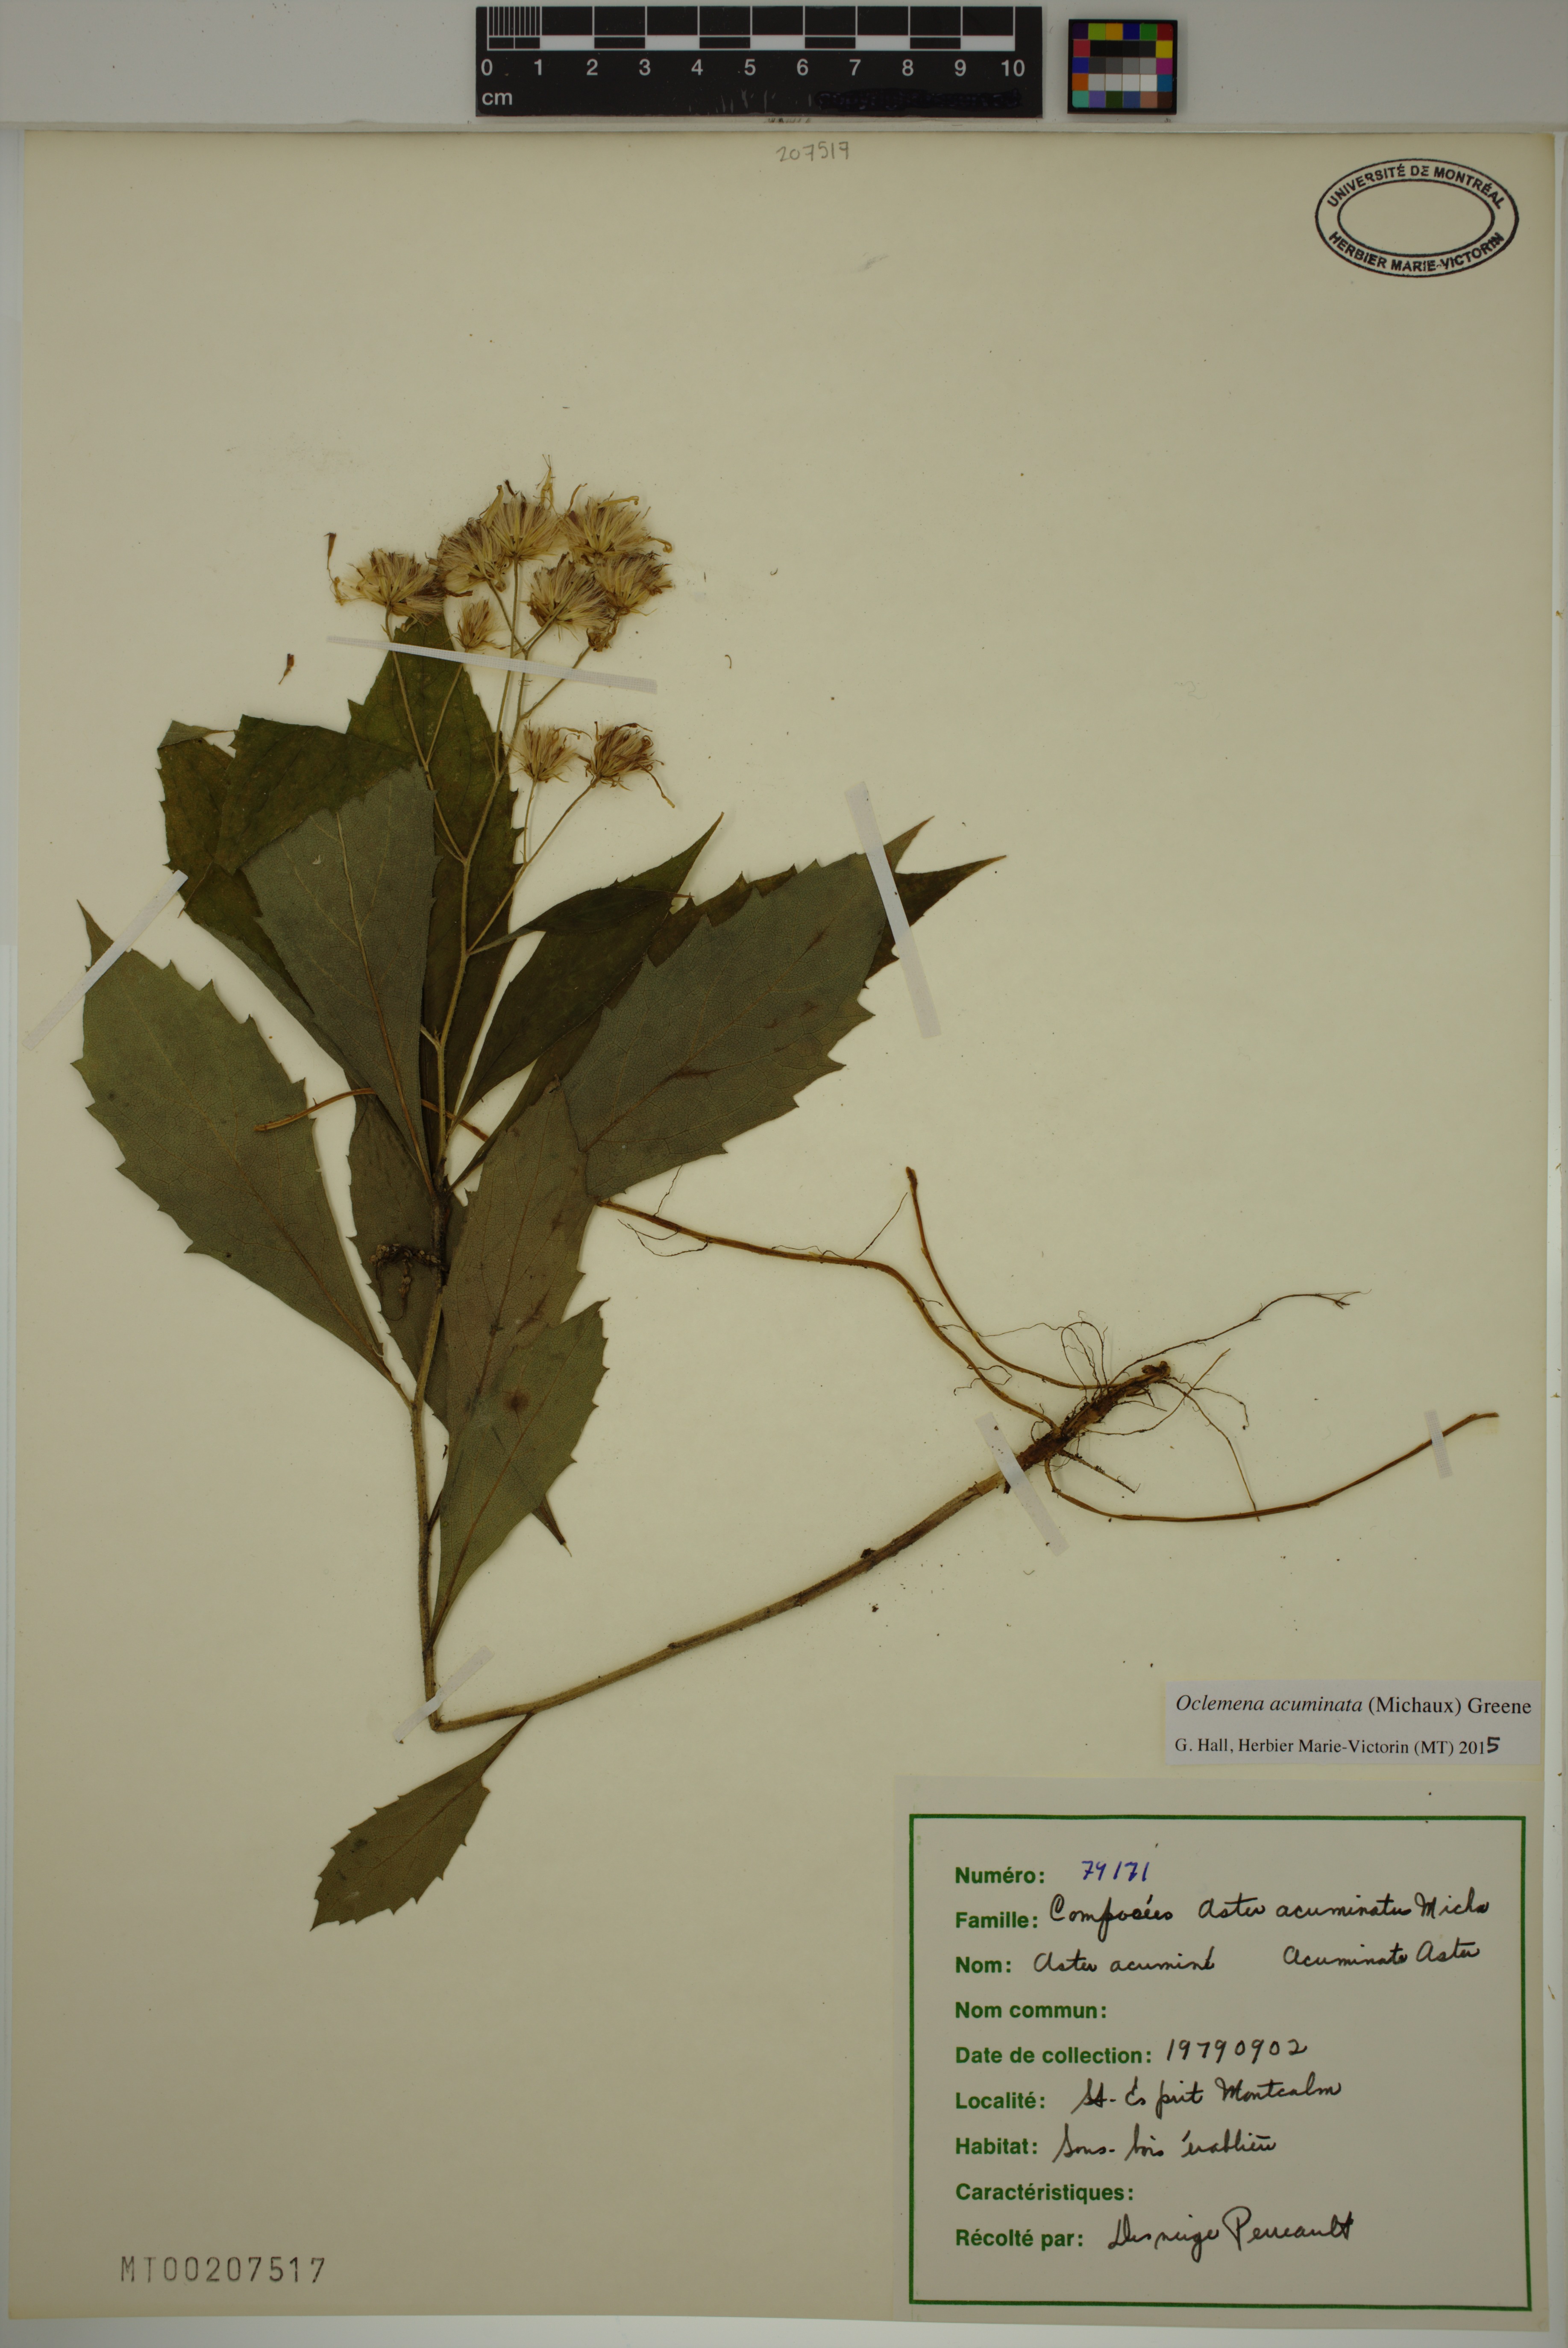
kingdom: Plantae
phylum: Tracheophyta
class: Magnoliopsida
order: Asterales
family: Asteraceae
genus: Oclemena
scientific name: Oclemena acuminata
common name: Mountain aster
